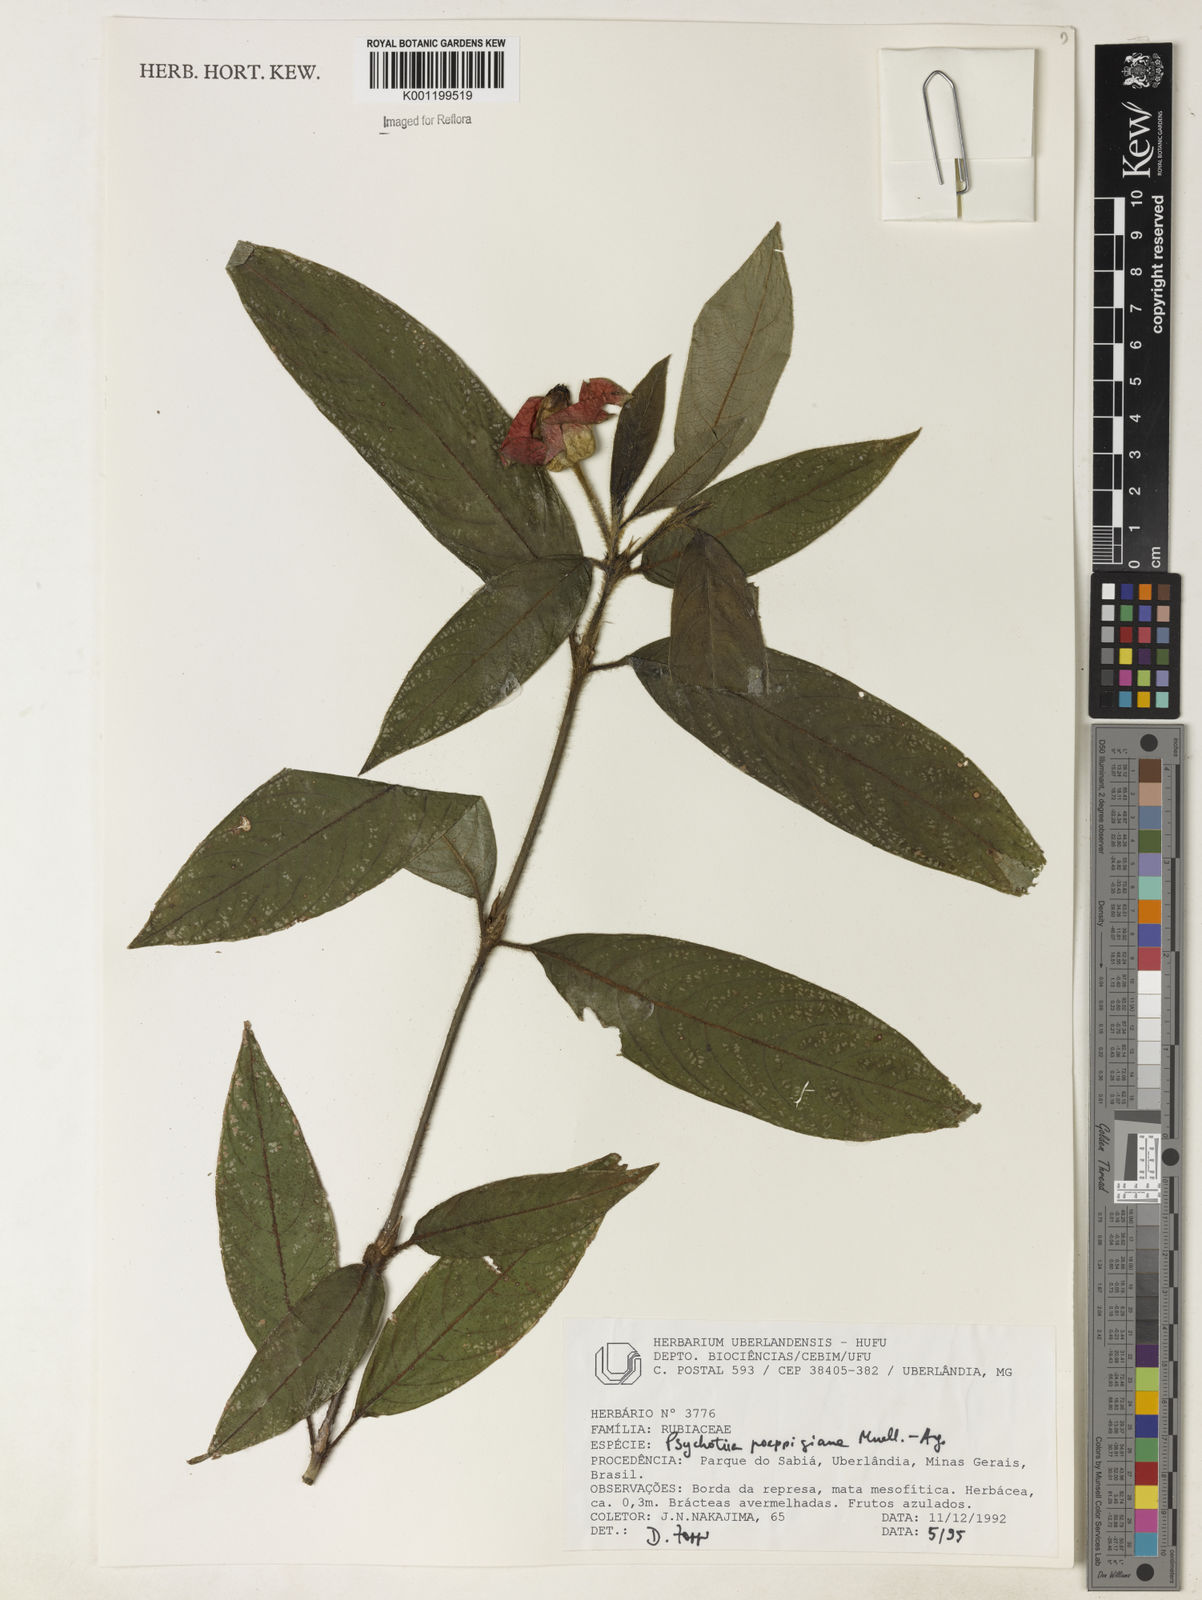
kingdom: Plantae
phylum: Tracheophyta
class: Magnoliopsida
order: Gentianales
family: Rubiaceae
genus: Psychotria
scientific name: Psychotria
